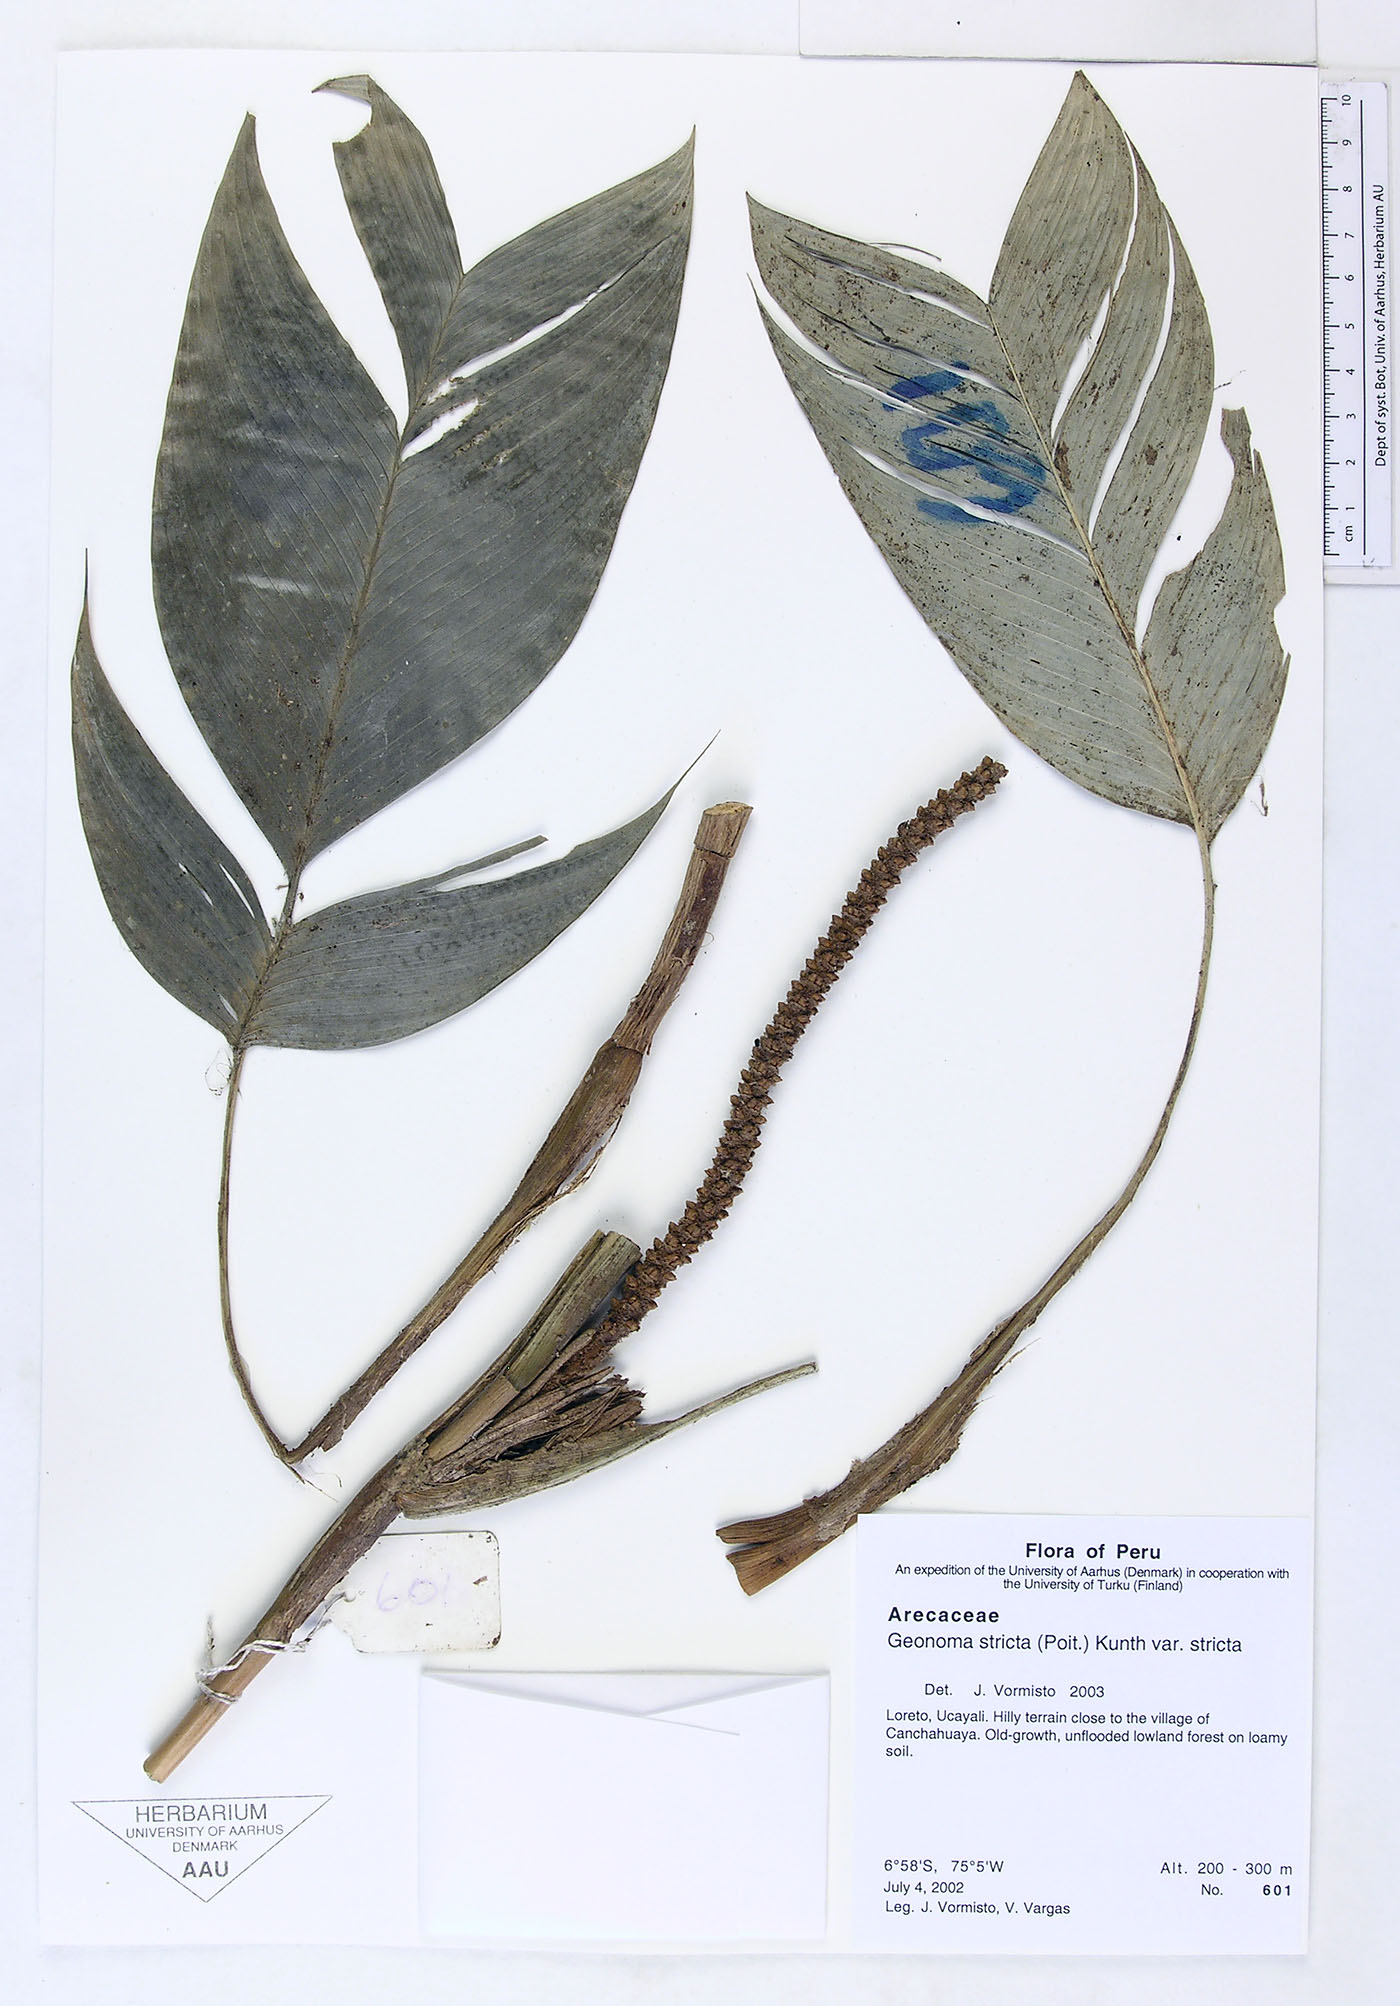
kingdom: Plantae
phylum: Tracheophyta
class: Liliopsida
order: Arecales
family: Arecaceae
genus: Geonoma
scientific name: Geonoma stricta
